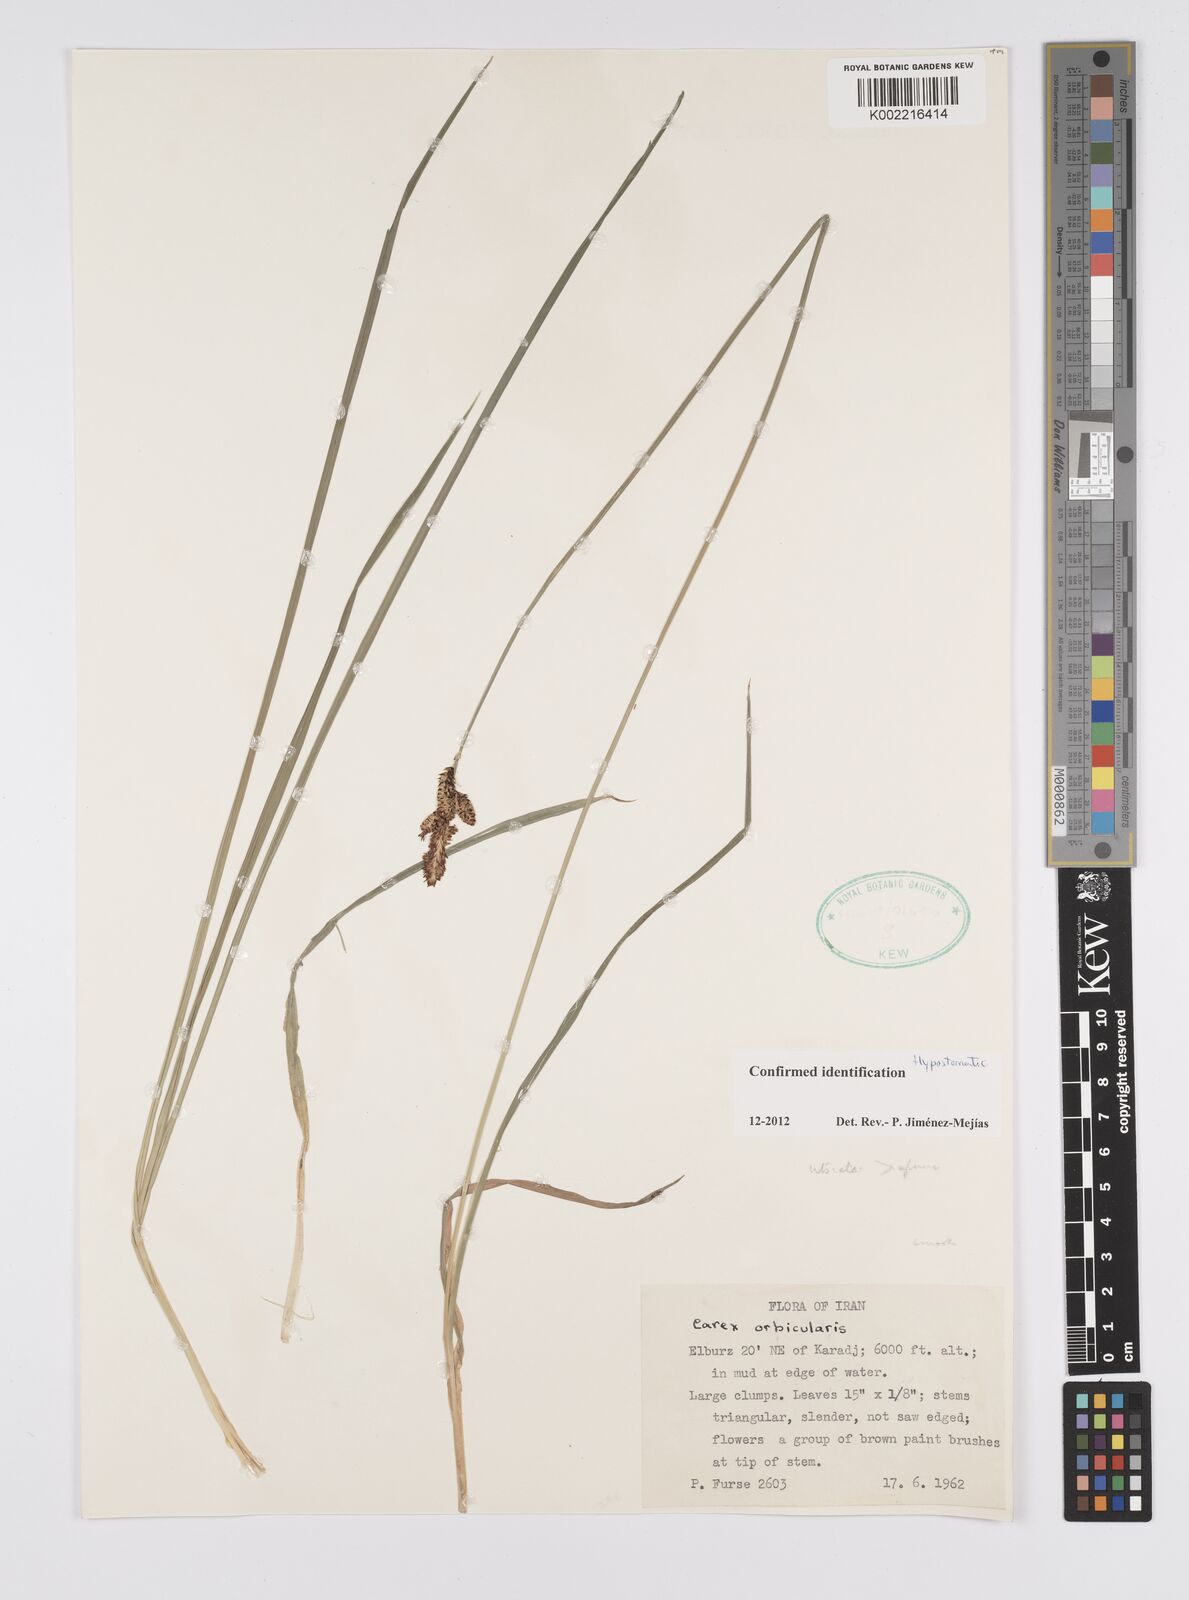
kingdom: Plantae
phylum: Tracheophyta
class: Liliopsida
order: Poales
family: Cyperaceae
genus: Carex
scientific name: Carex orbicularis
